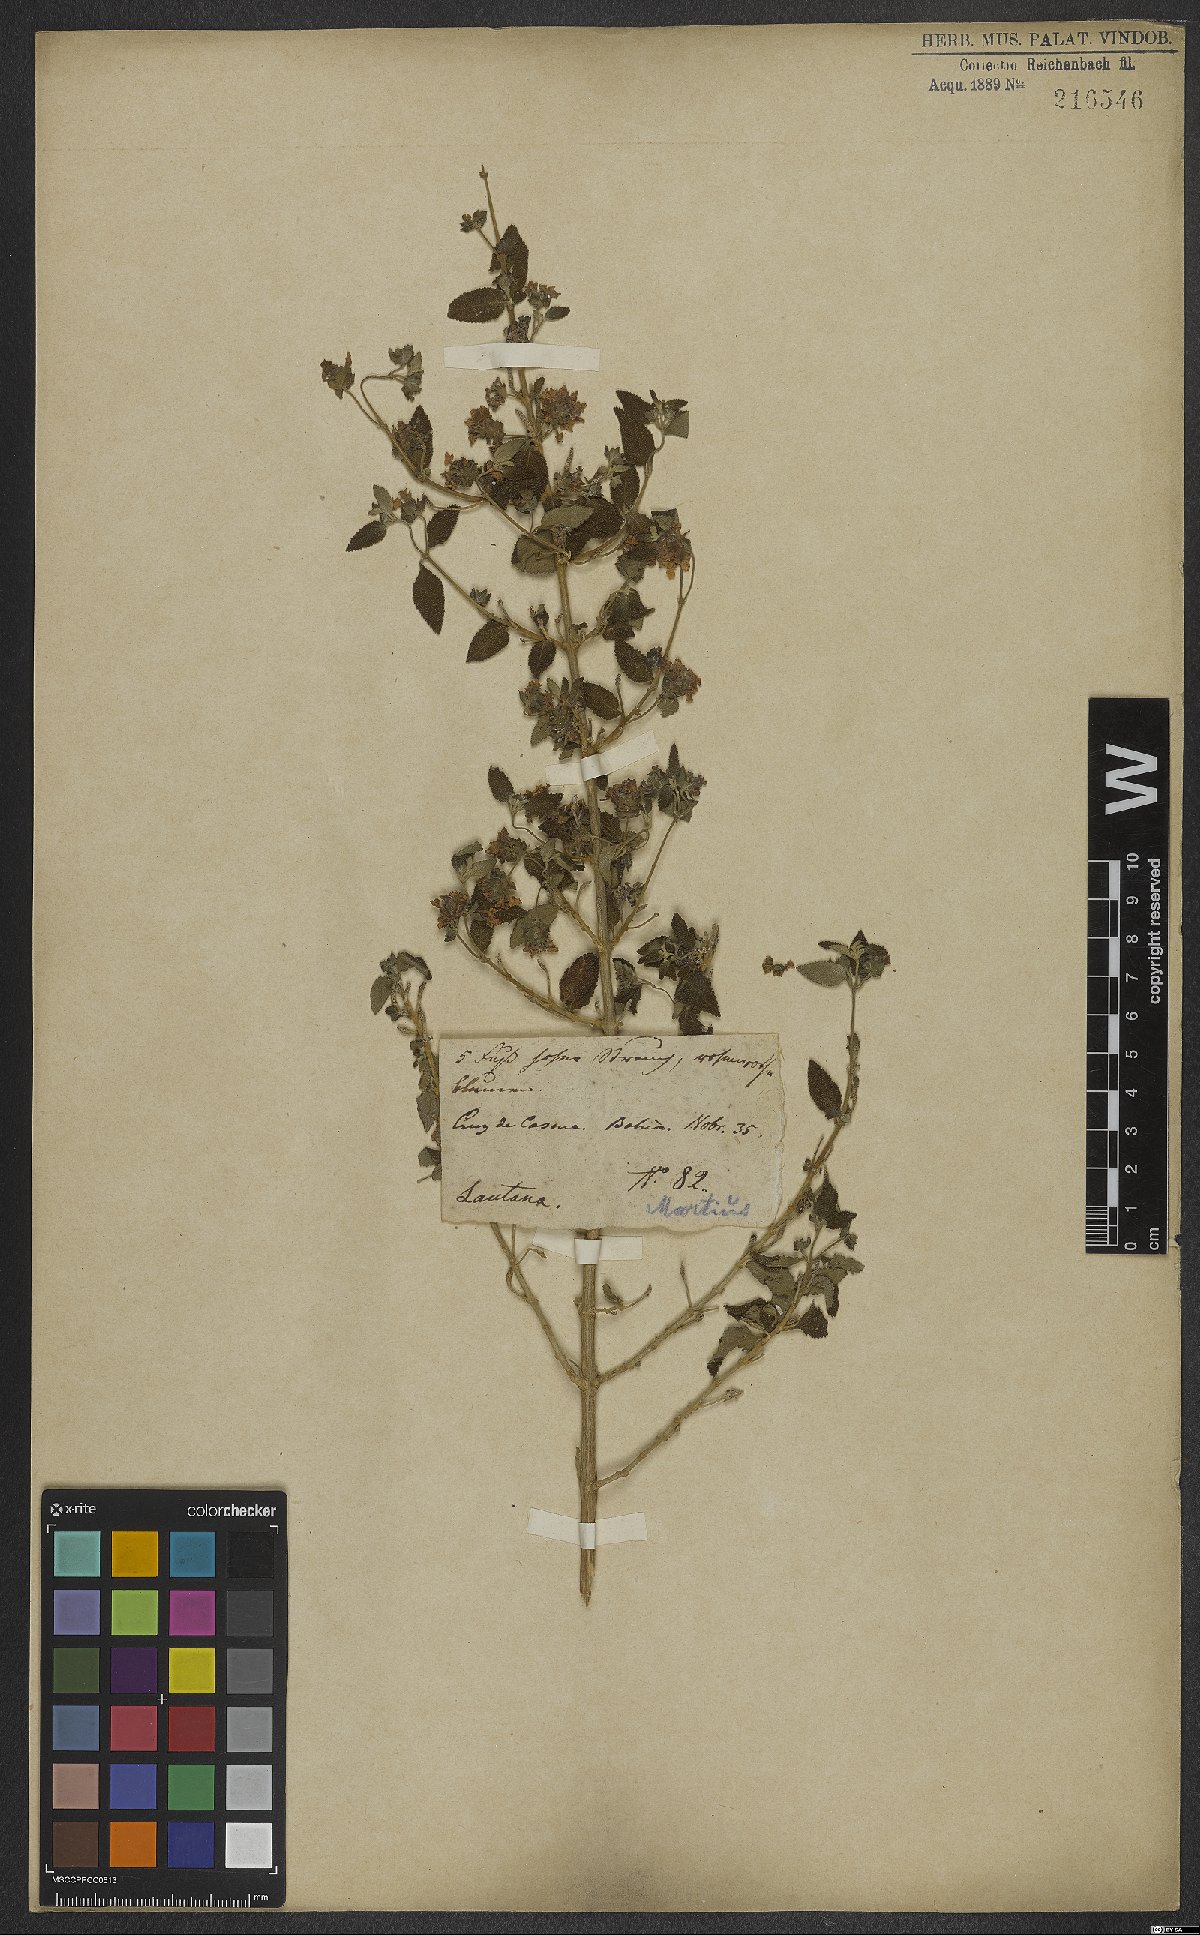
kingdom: Plantae
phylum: Tracheophyta
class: Magnoliopsida
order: Lamiales
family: Verbenaceae
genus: Lantana
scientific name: Lantana fucata
